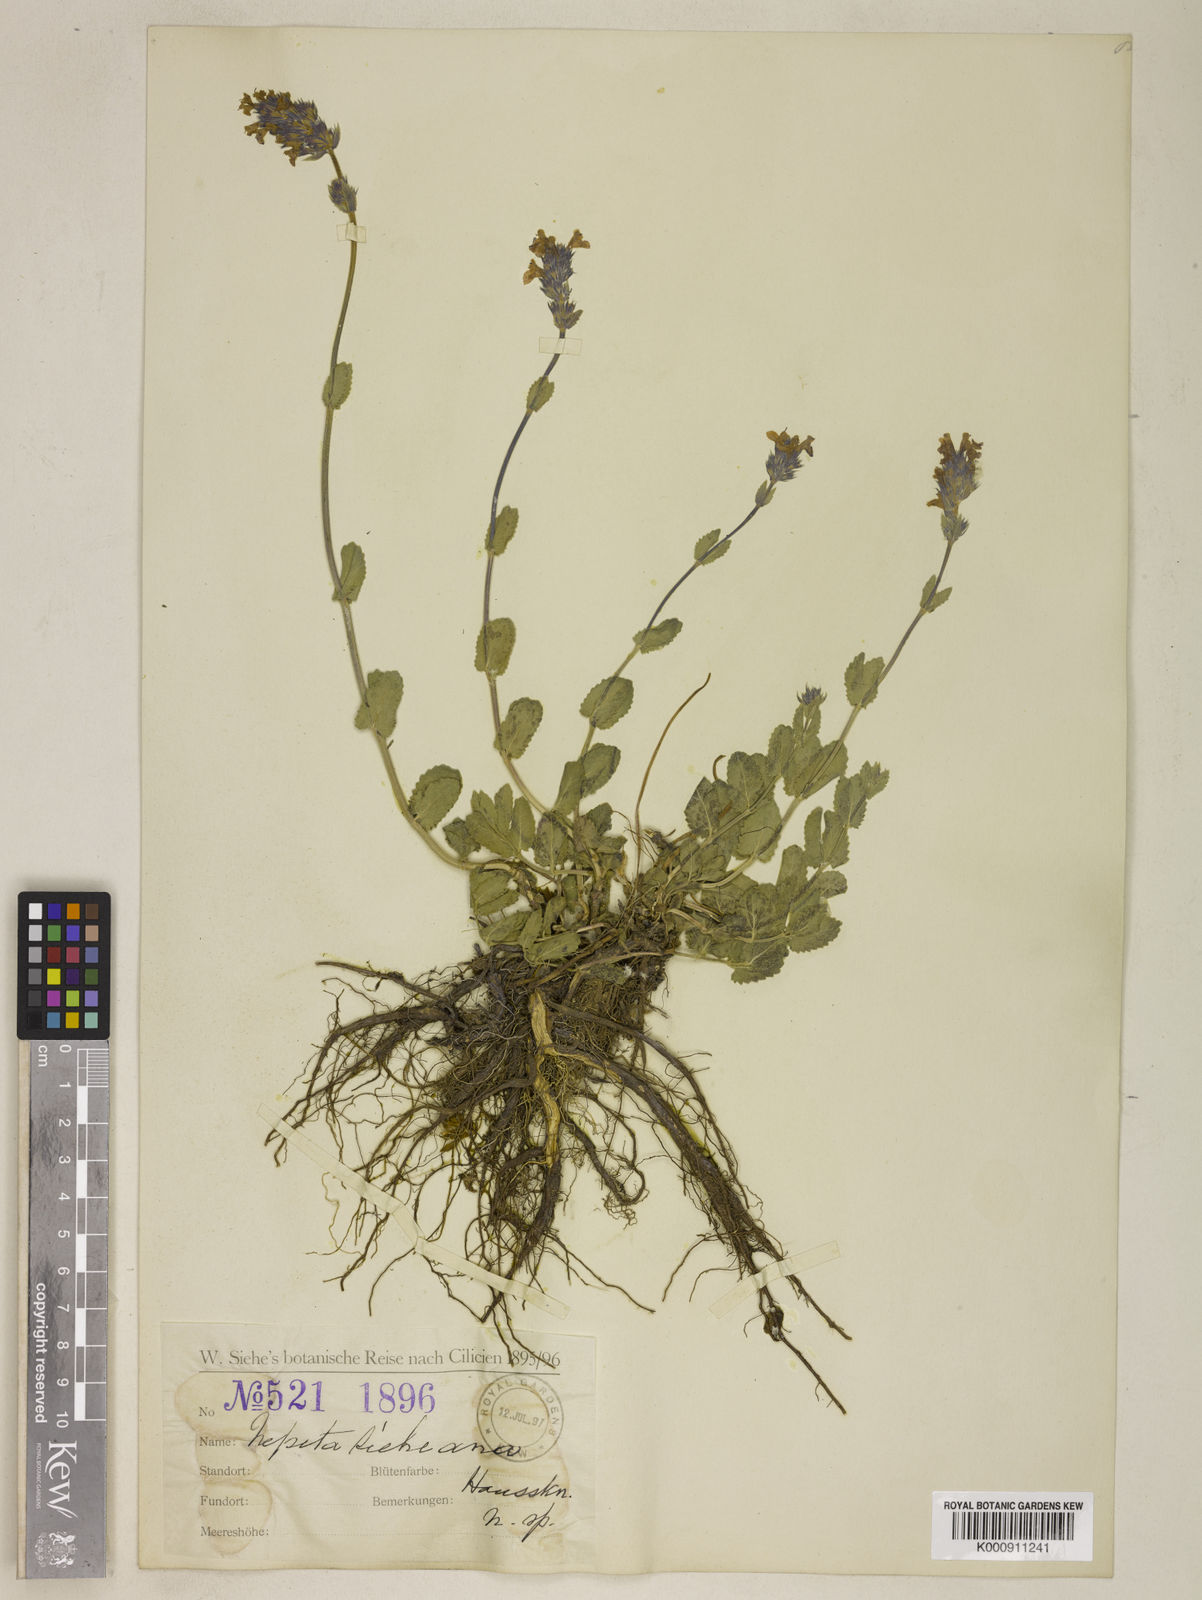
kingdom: Plantae
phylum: Tracheophyta
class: Magnoliopsida
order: Lamiales
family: Lamiaceae
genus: Nepeta
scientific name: Nepeta
